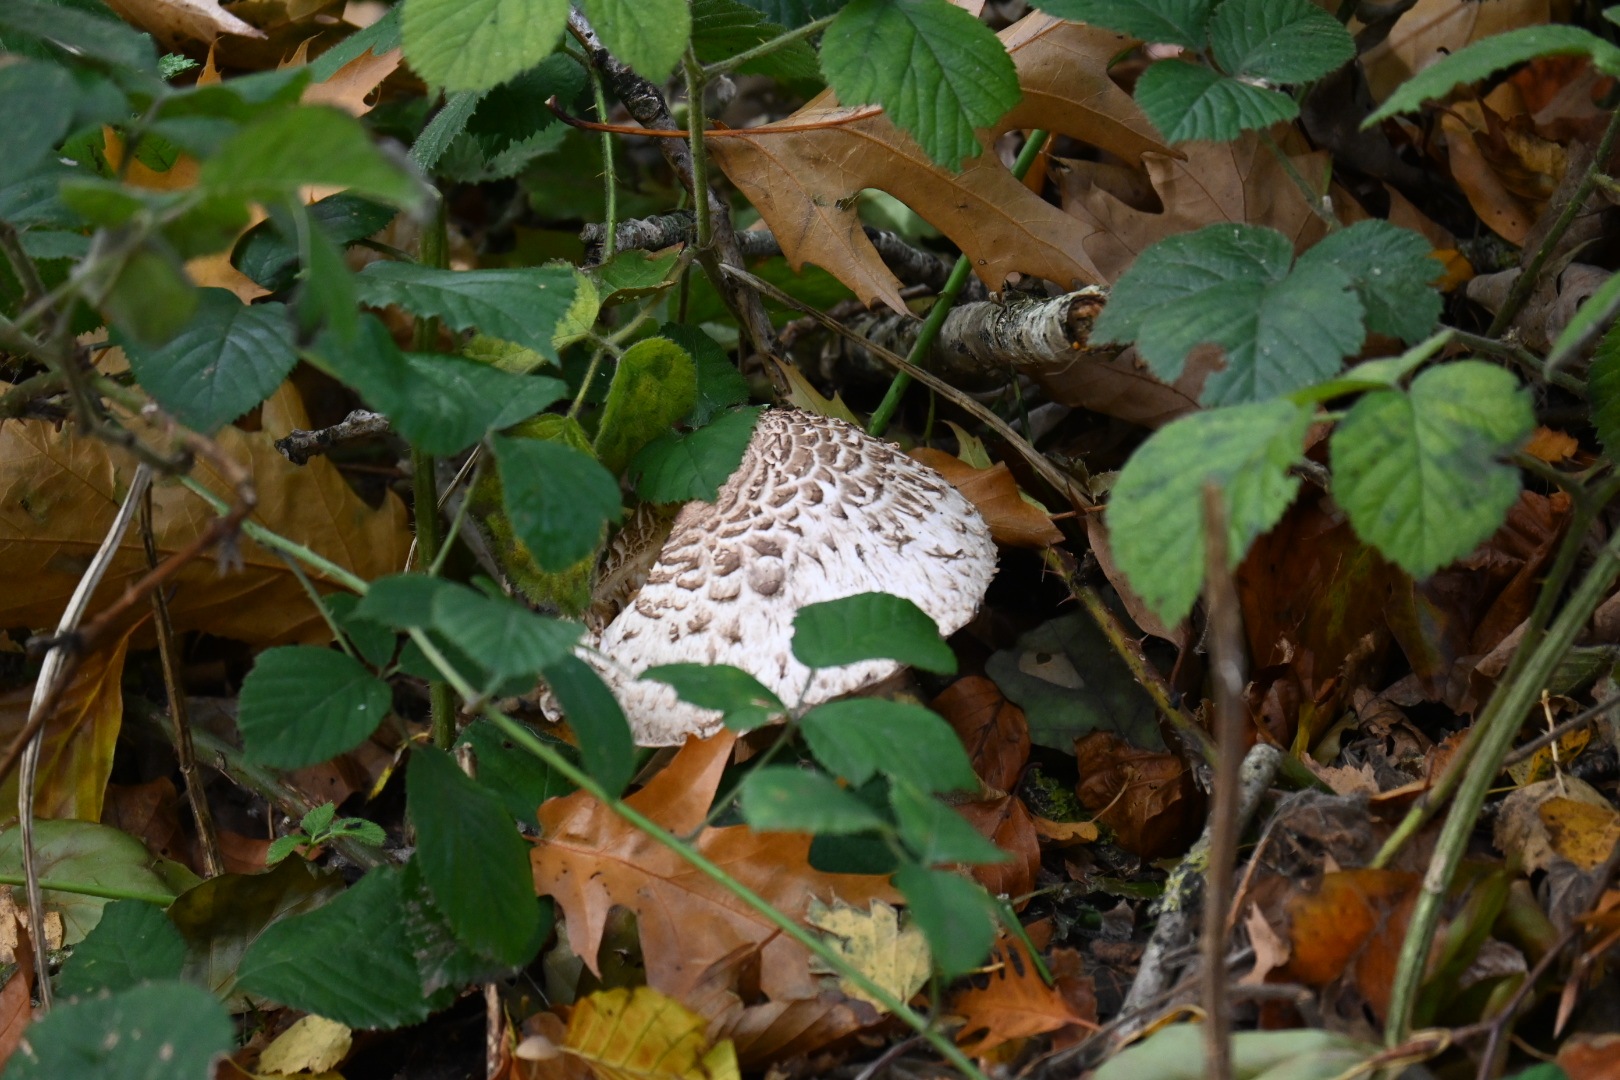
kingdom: Fungi
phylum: Basidiomycota
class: Agaricomycetes
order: Agaricales
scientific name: Agaricales
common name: champignonordenen
